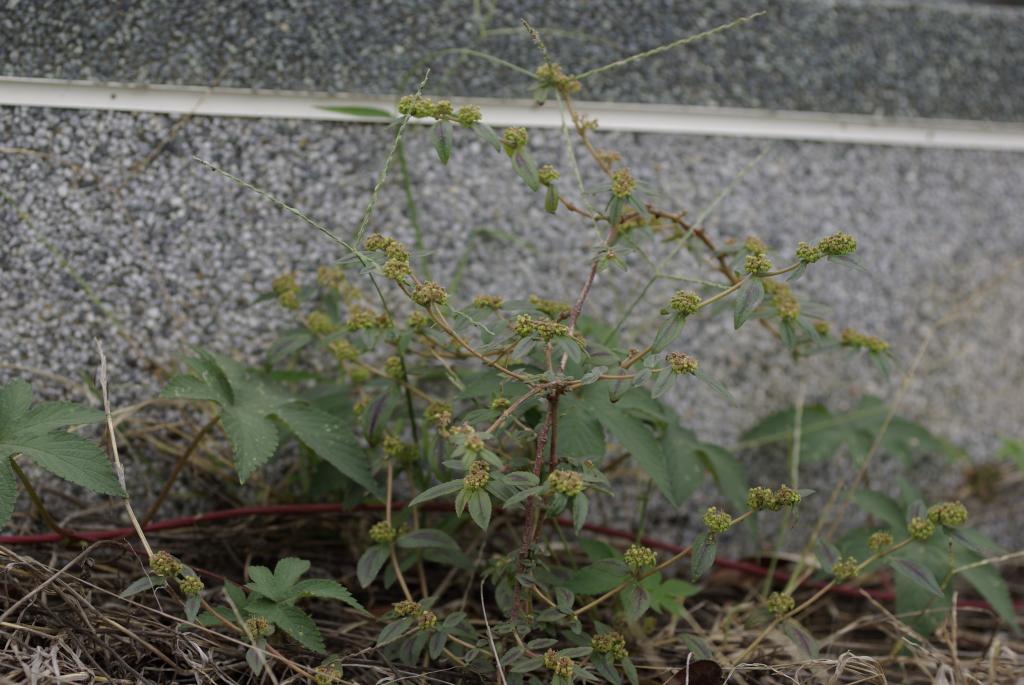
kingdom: Plantae
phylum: Tracheophyta
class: Magnoliopsida
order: Malpighiales
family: Euphorbiaceae
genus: Euphorbia
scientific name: Euphorbia hirta
